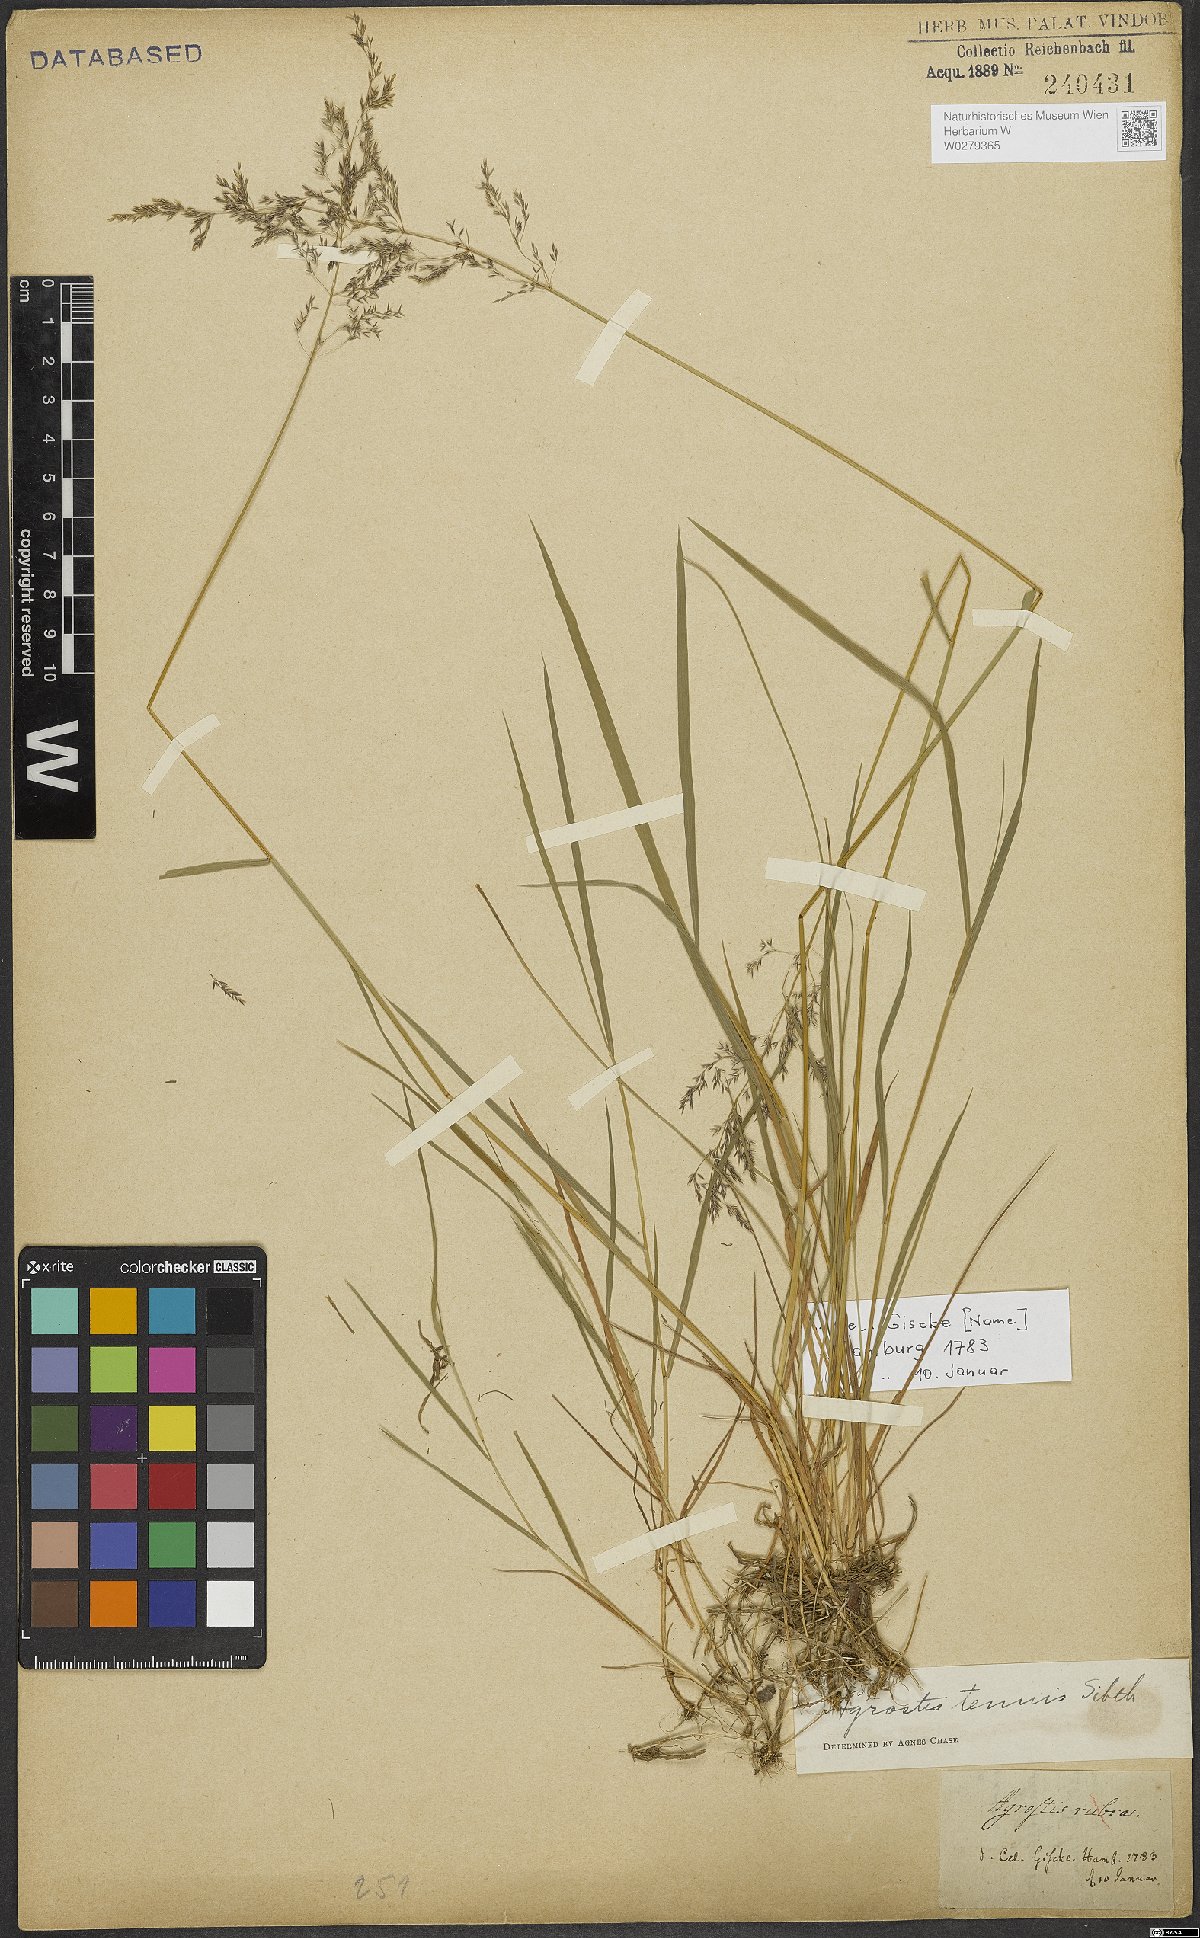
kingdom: Plantae
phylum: Tracheophyta
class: Liliopsida
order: Poales
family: Poaceae
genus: Agrostis
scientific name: Agrostis capillaris
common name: Colonial bentgrass
